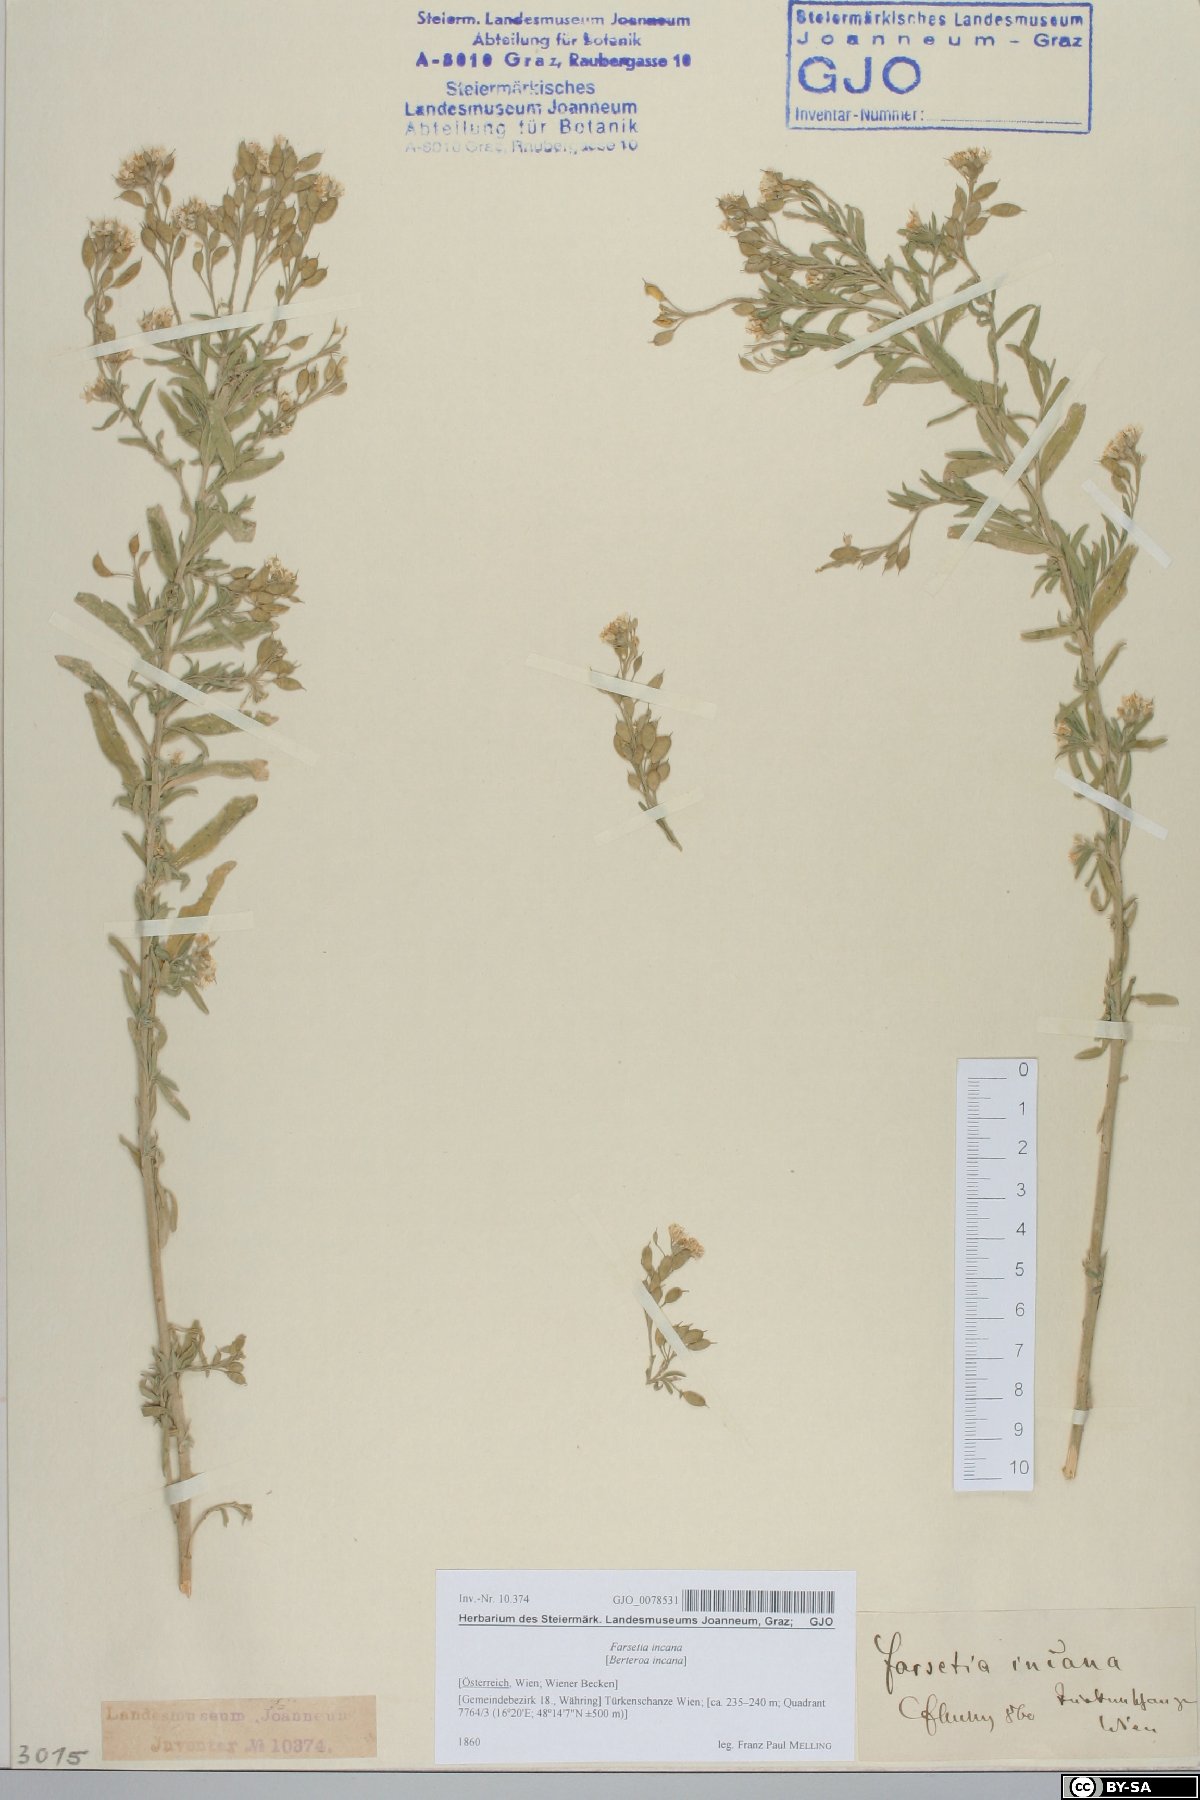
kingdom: Plantae
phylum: Tracheophyta
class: Magnoliopsida
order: Brassicales
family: Brassicaceae
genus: Berteroa
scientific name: Berteroa incana
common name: Hoary alison
